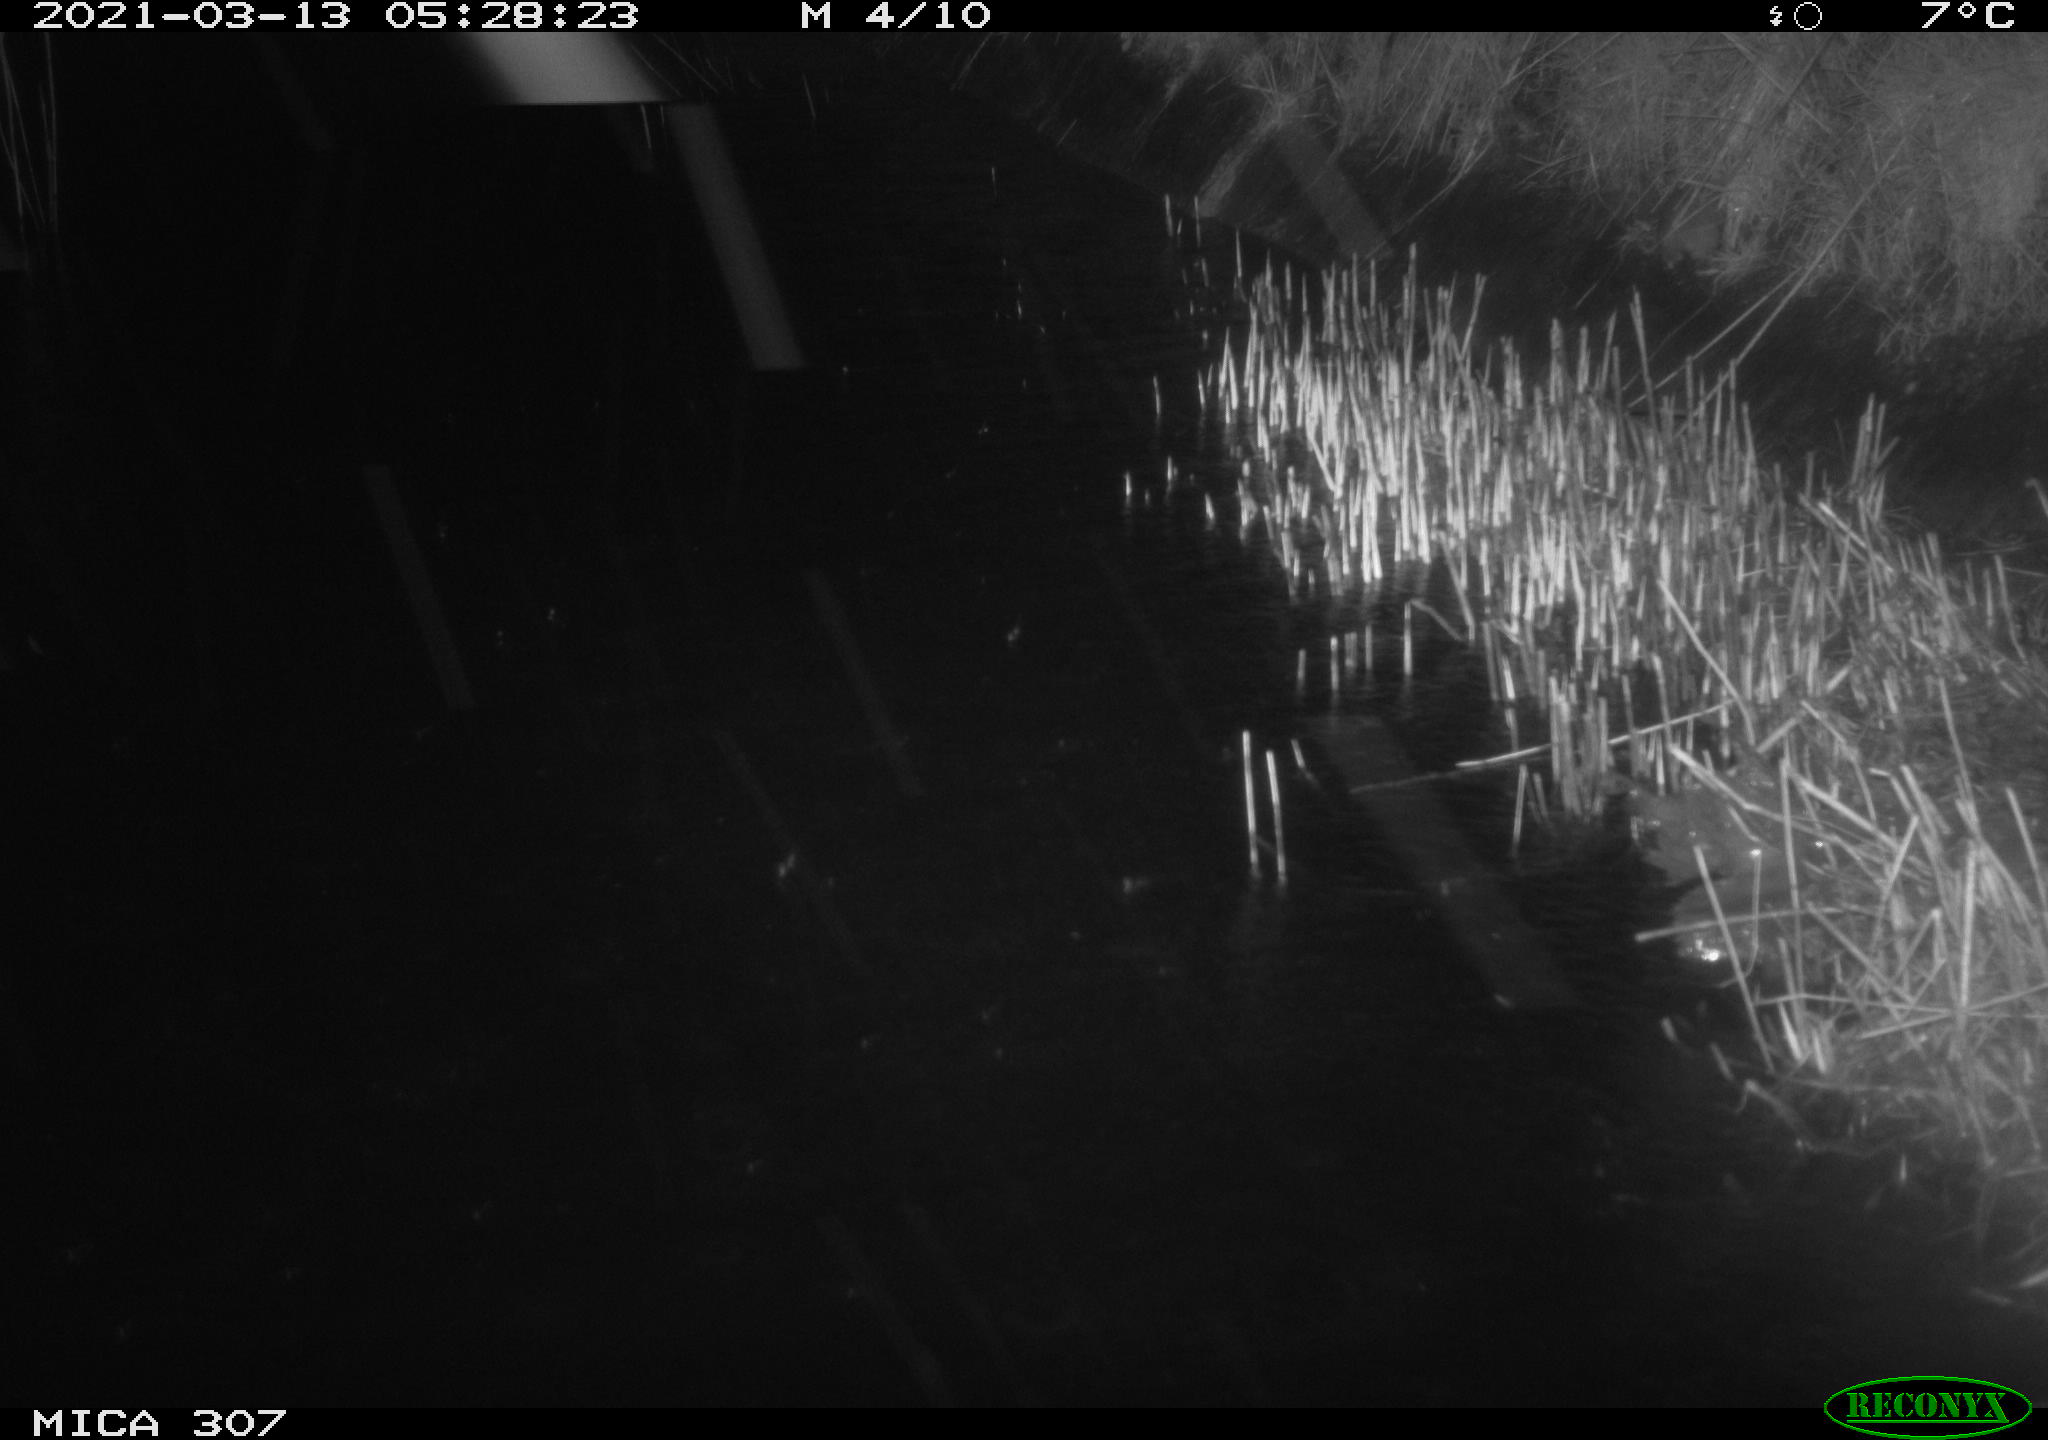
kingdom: Animalia
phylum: Chordata
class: Mammalia
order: Rodentia
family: Muridae
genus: Rattus
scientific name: Rattus norvegicus
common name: Brown rat
